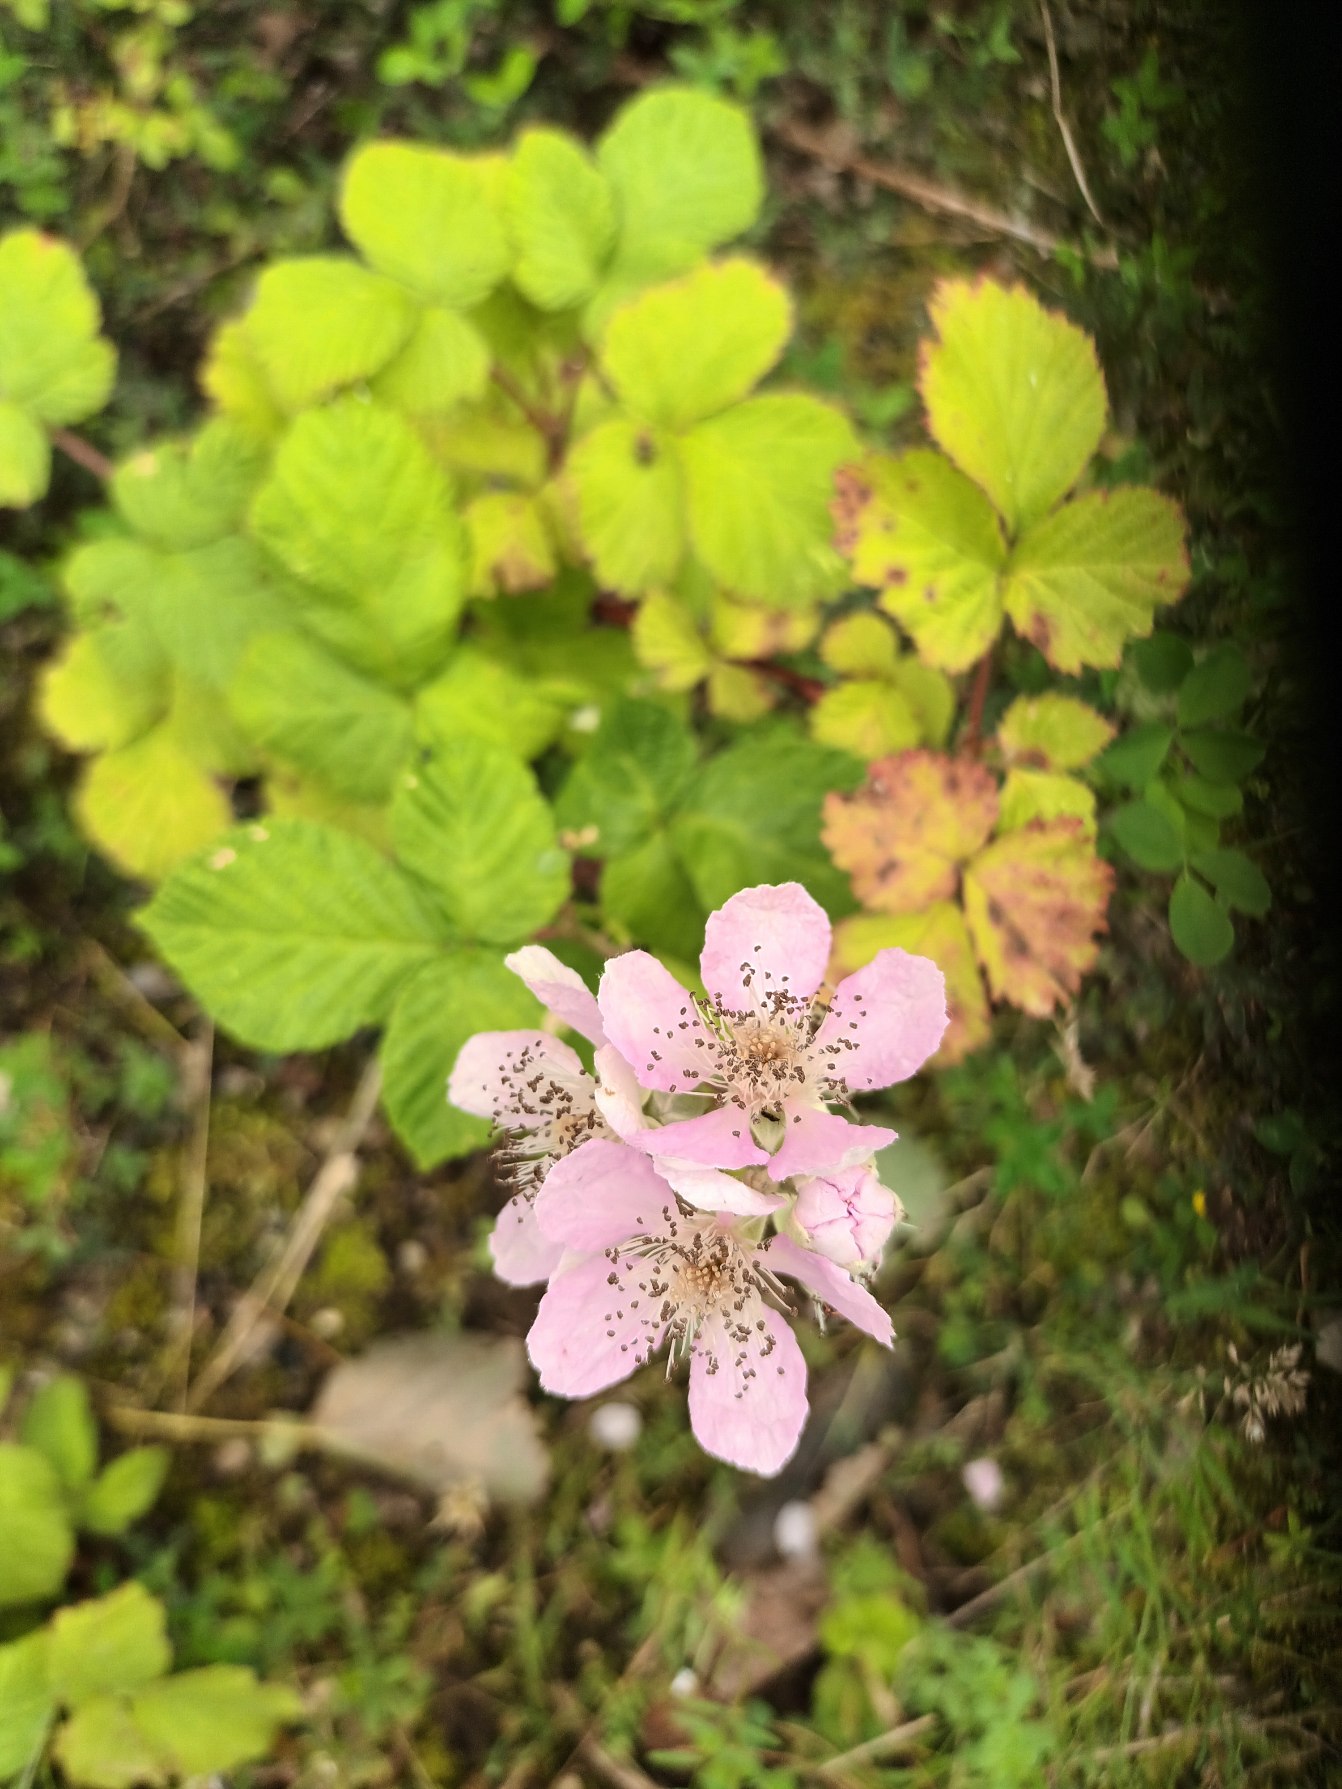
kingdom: Plantae
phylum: Tracheophyta
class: Magnoliopsida
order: Rosales
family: Rosaceae
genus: Rubus
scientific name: Rubus armeniacus
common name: Armensk brombær
